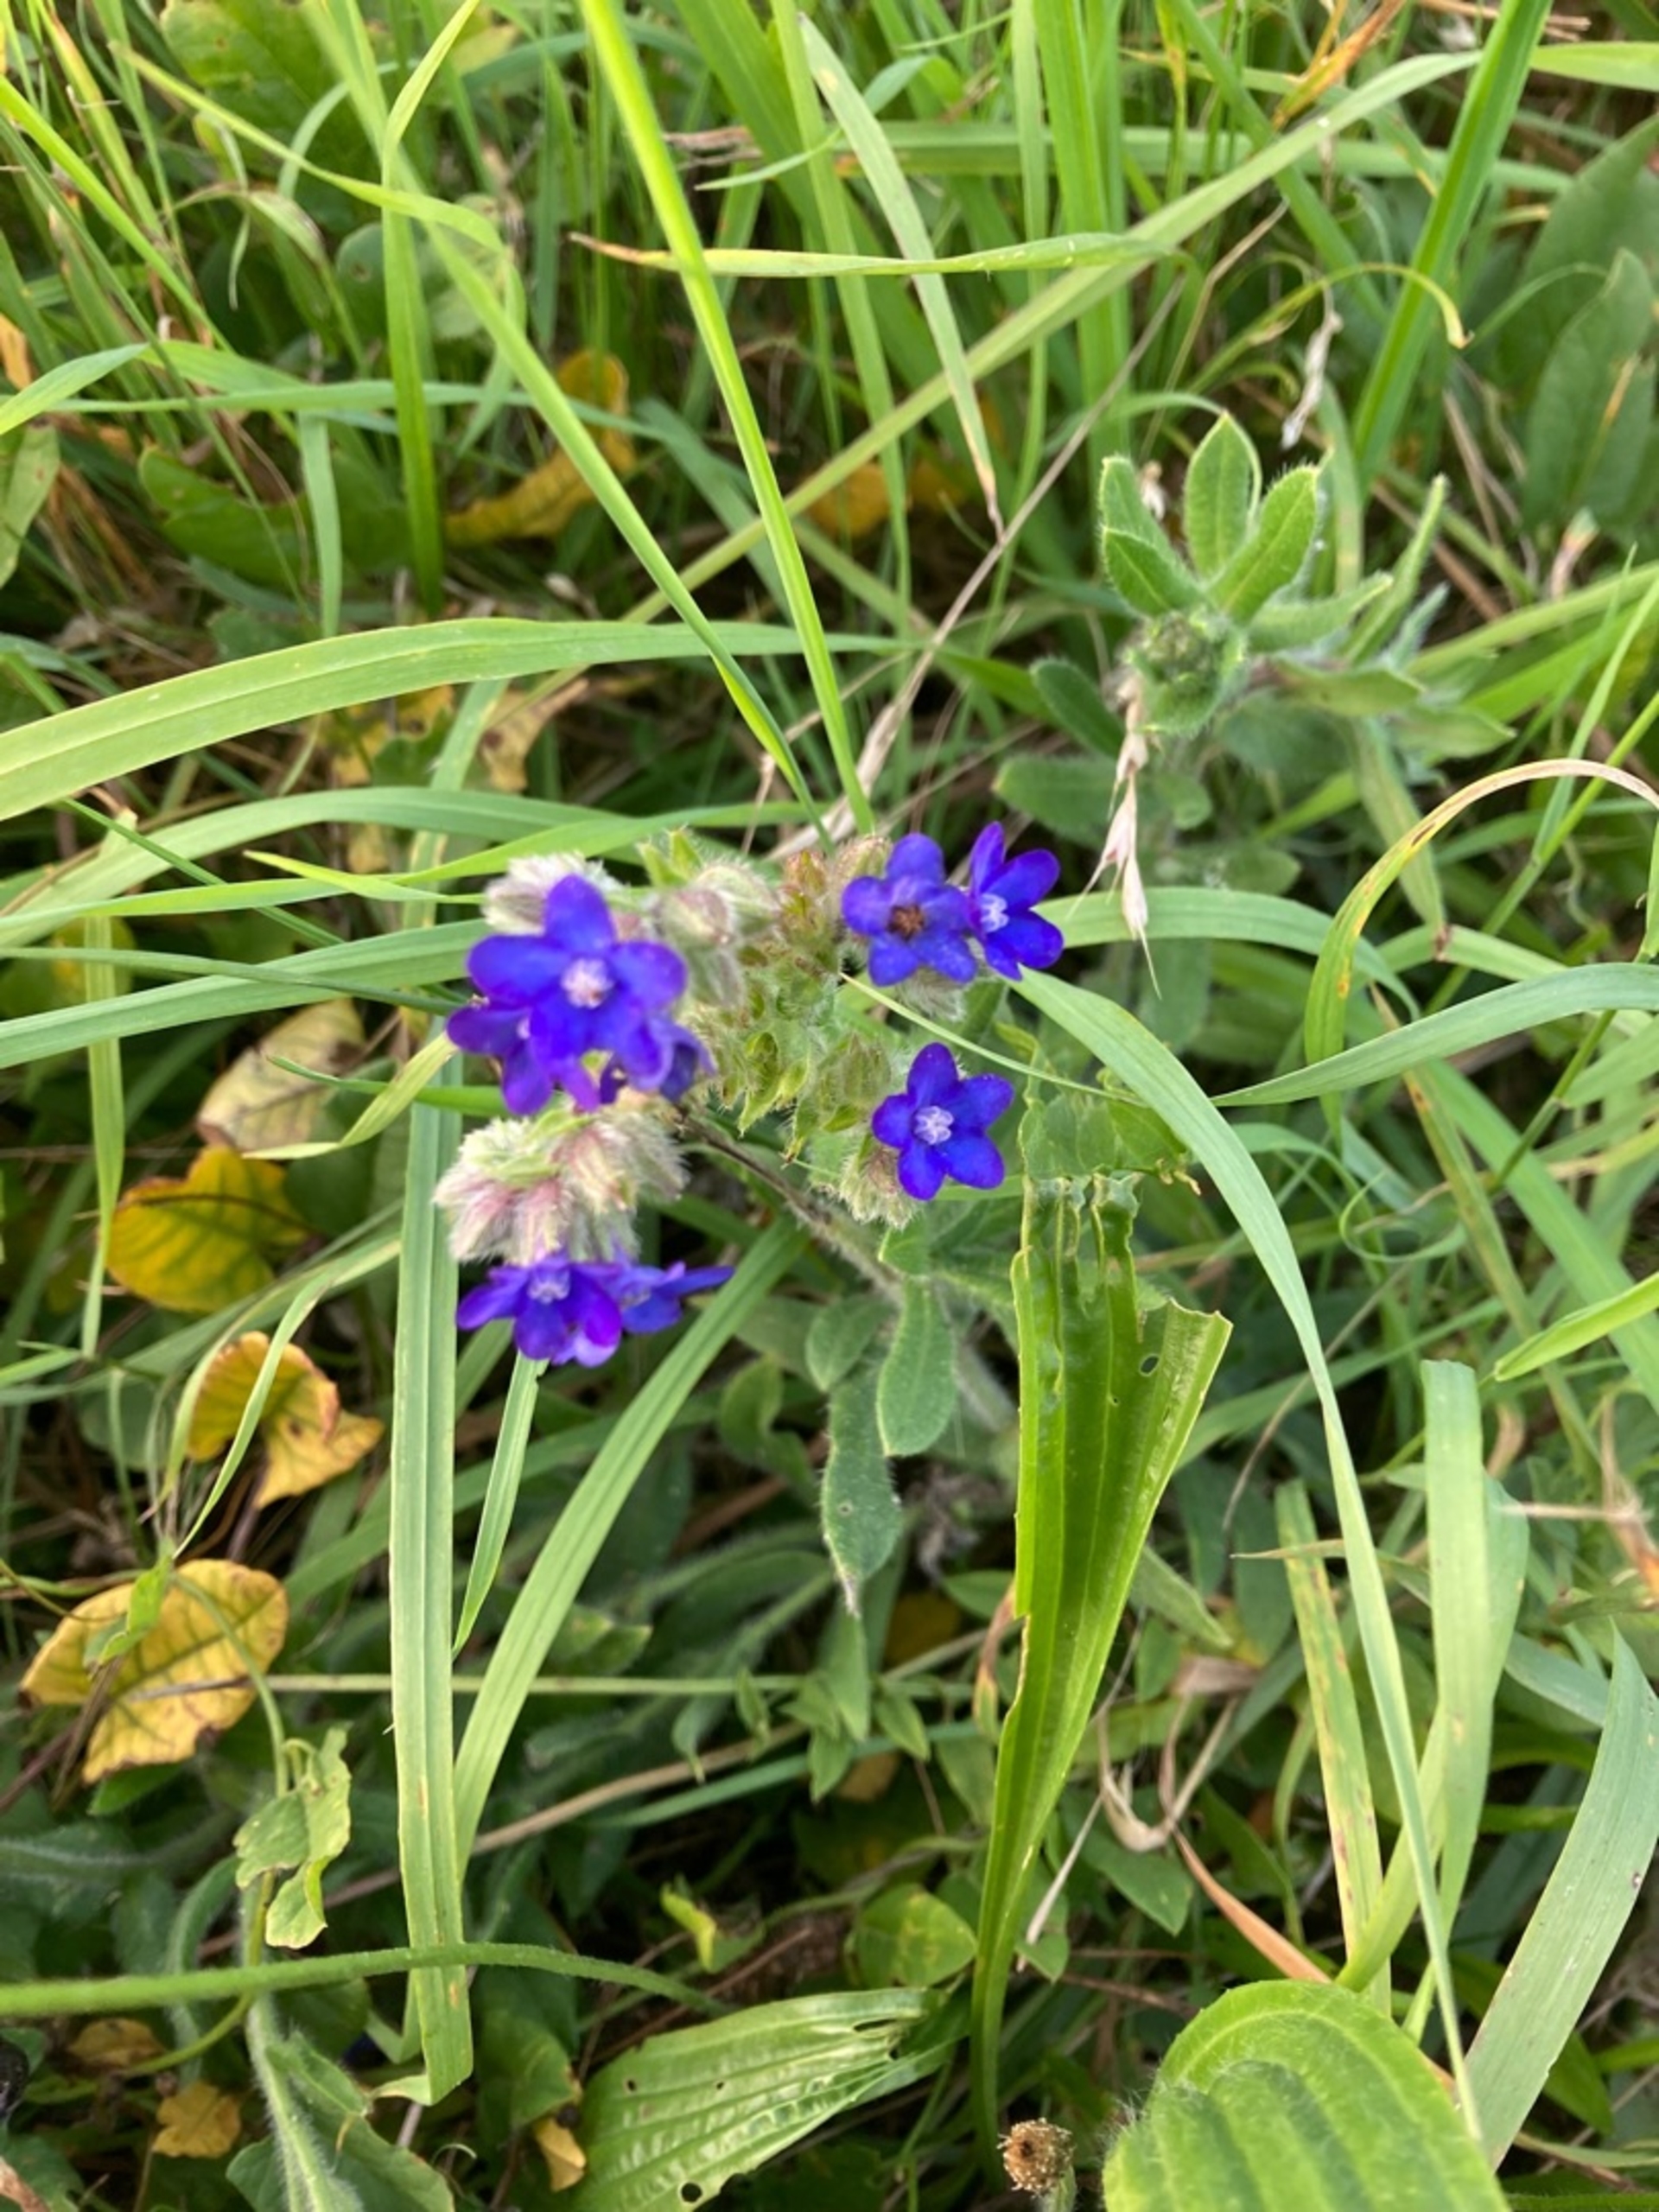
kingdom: Plantae
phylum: Tracheophyta
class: Magnoliopsida
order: Boraginales
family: Boraginaceae
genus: Anchusa
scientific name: Anchusa officinalis
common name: Læge-oksetunge
